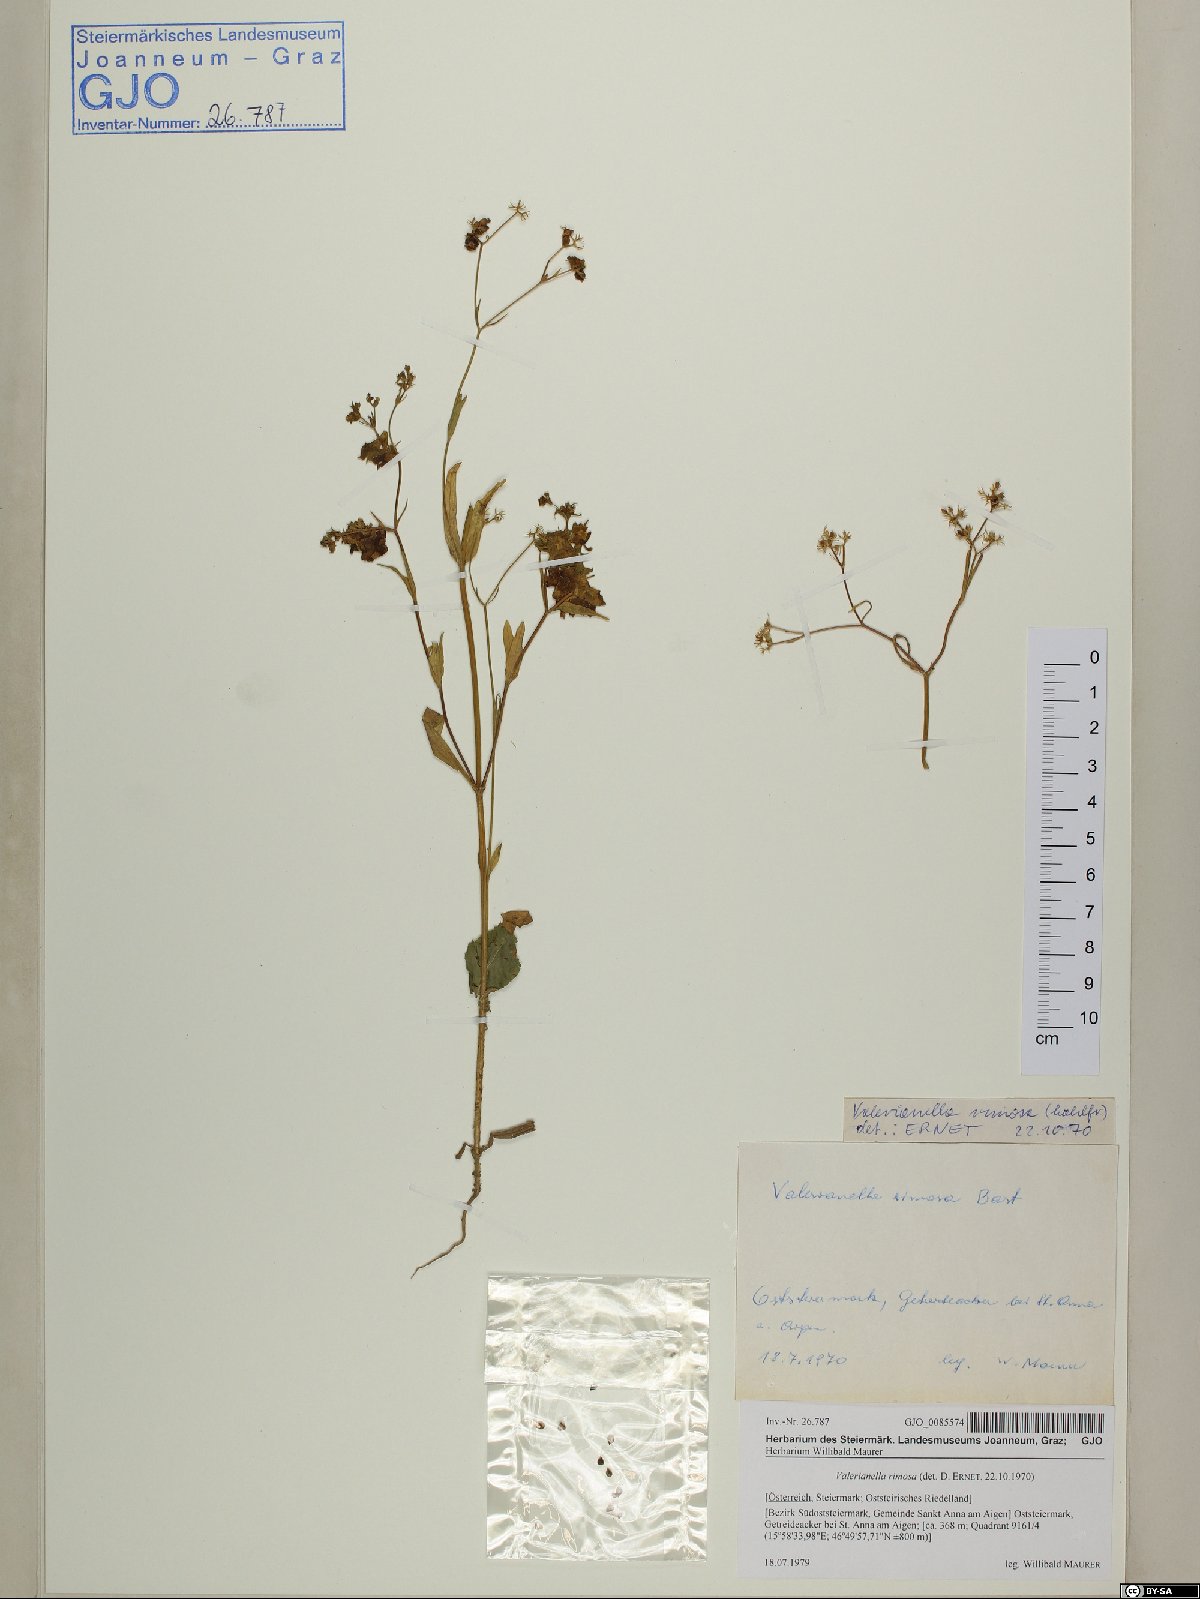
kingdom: Plantae
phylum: Tracheophyta
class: Magnoliopsida
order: Dipsacales
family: Caprifoliaceae
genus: Valerianella
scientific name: Valerianella rimosa
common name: Broad-fruited cornsalad
